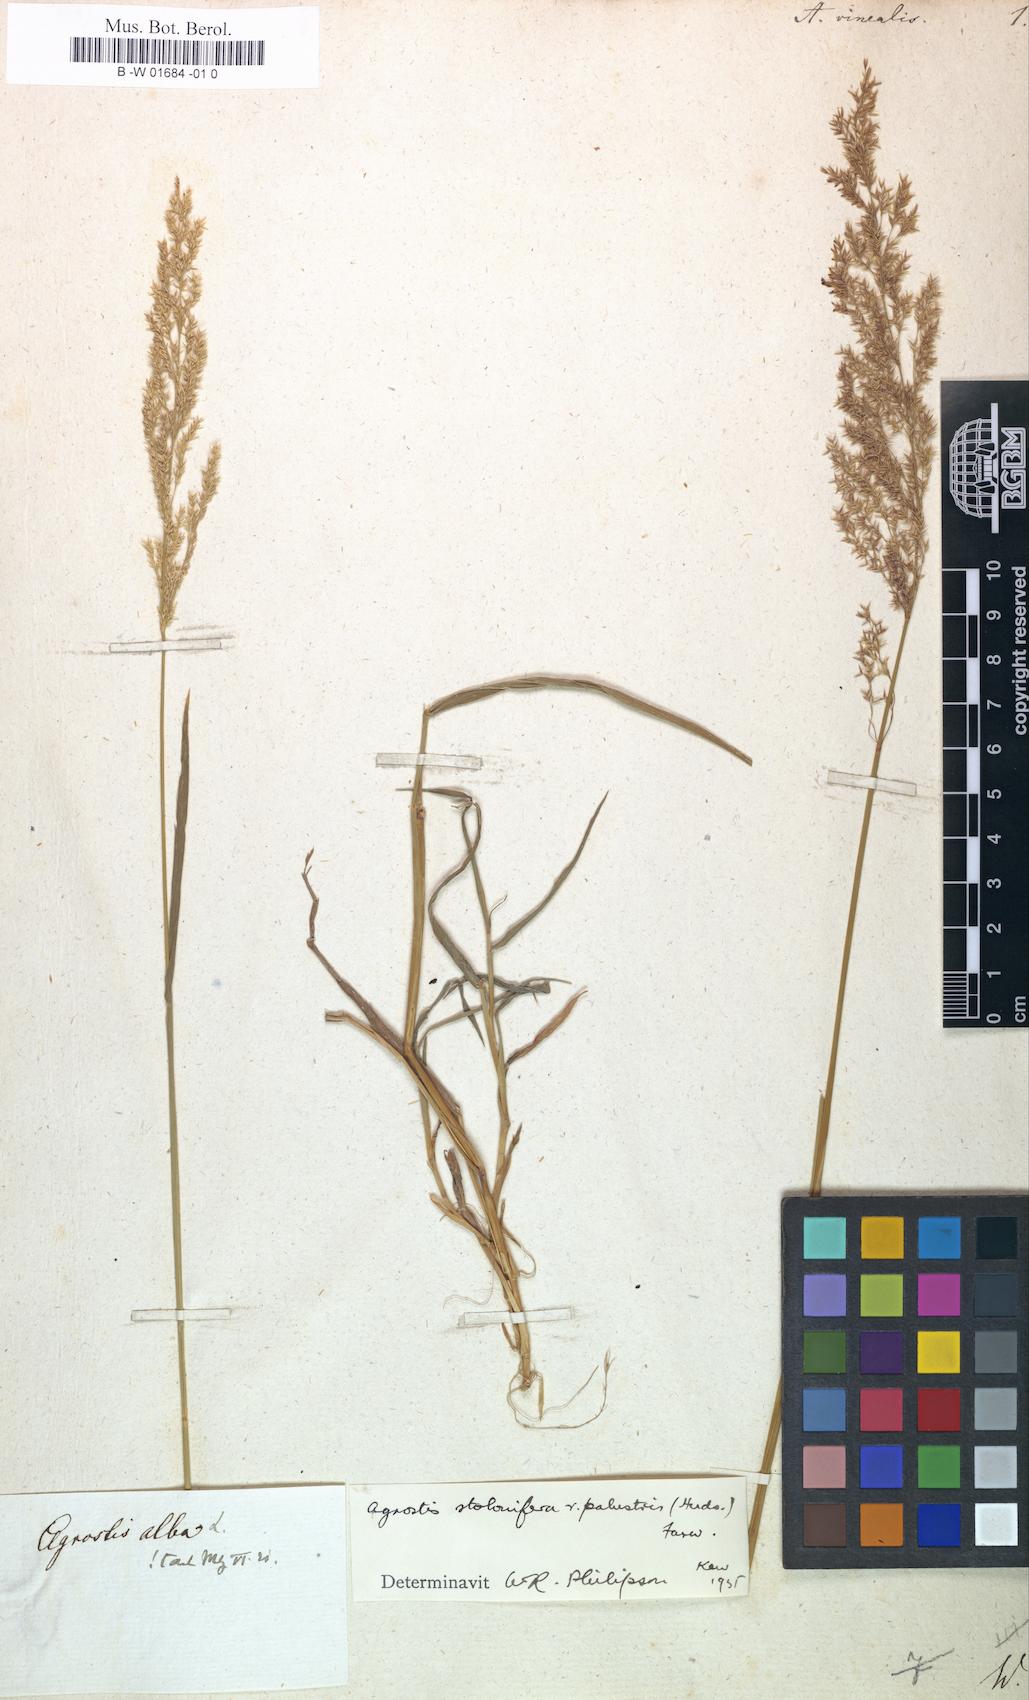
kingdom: Plantae
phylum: Tracheophyta
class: Liliopsida
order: Poales
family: Poaceae
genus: Agrostis
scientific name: Agrostis vinealis
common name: Brown bent
